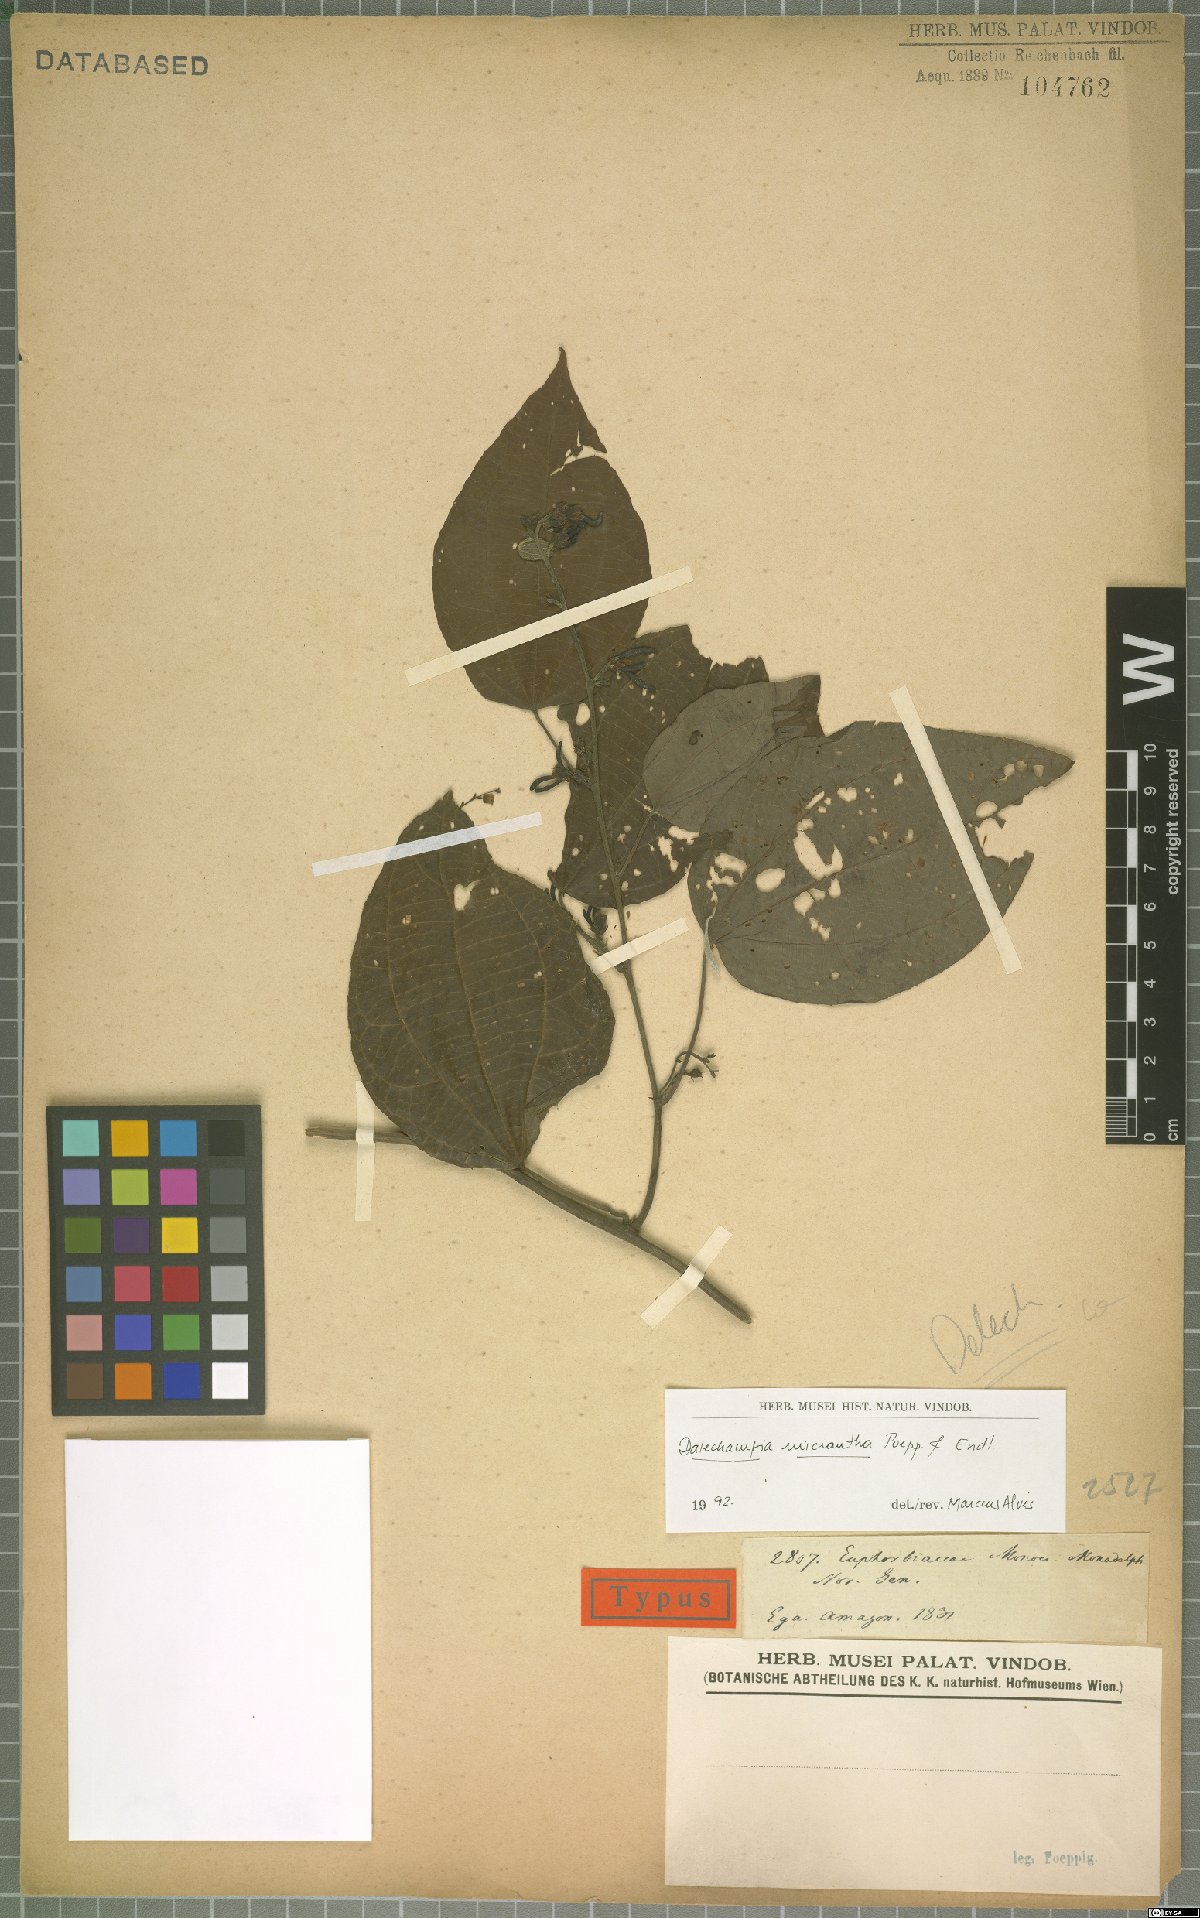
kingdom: Plantae
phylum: Tracheophyta
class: Magnoliopsida
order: Malpighiales
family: Euphorbiaceae
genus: Dalechampia
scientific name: Dalechampia micrantha
